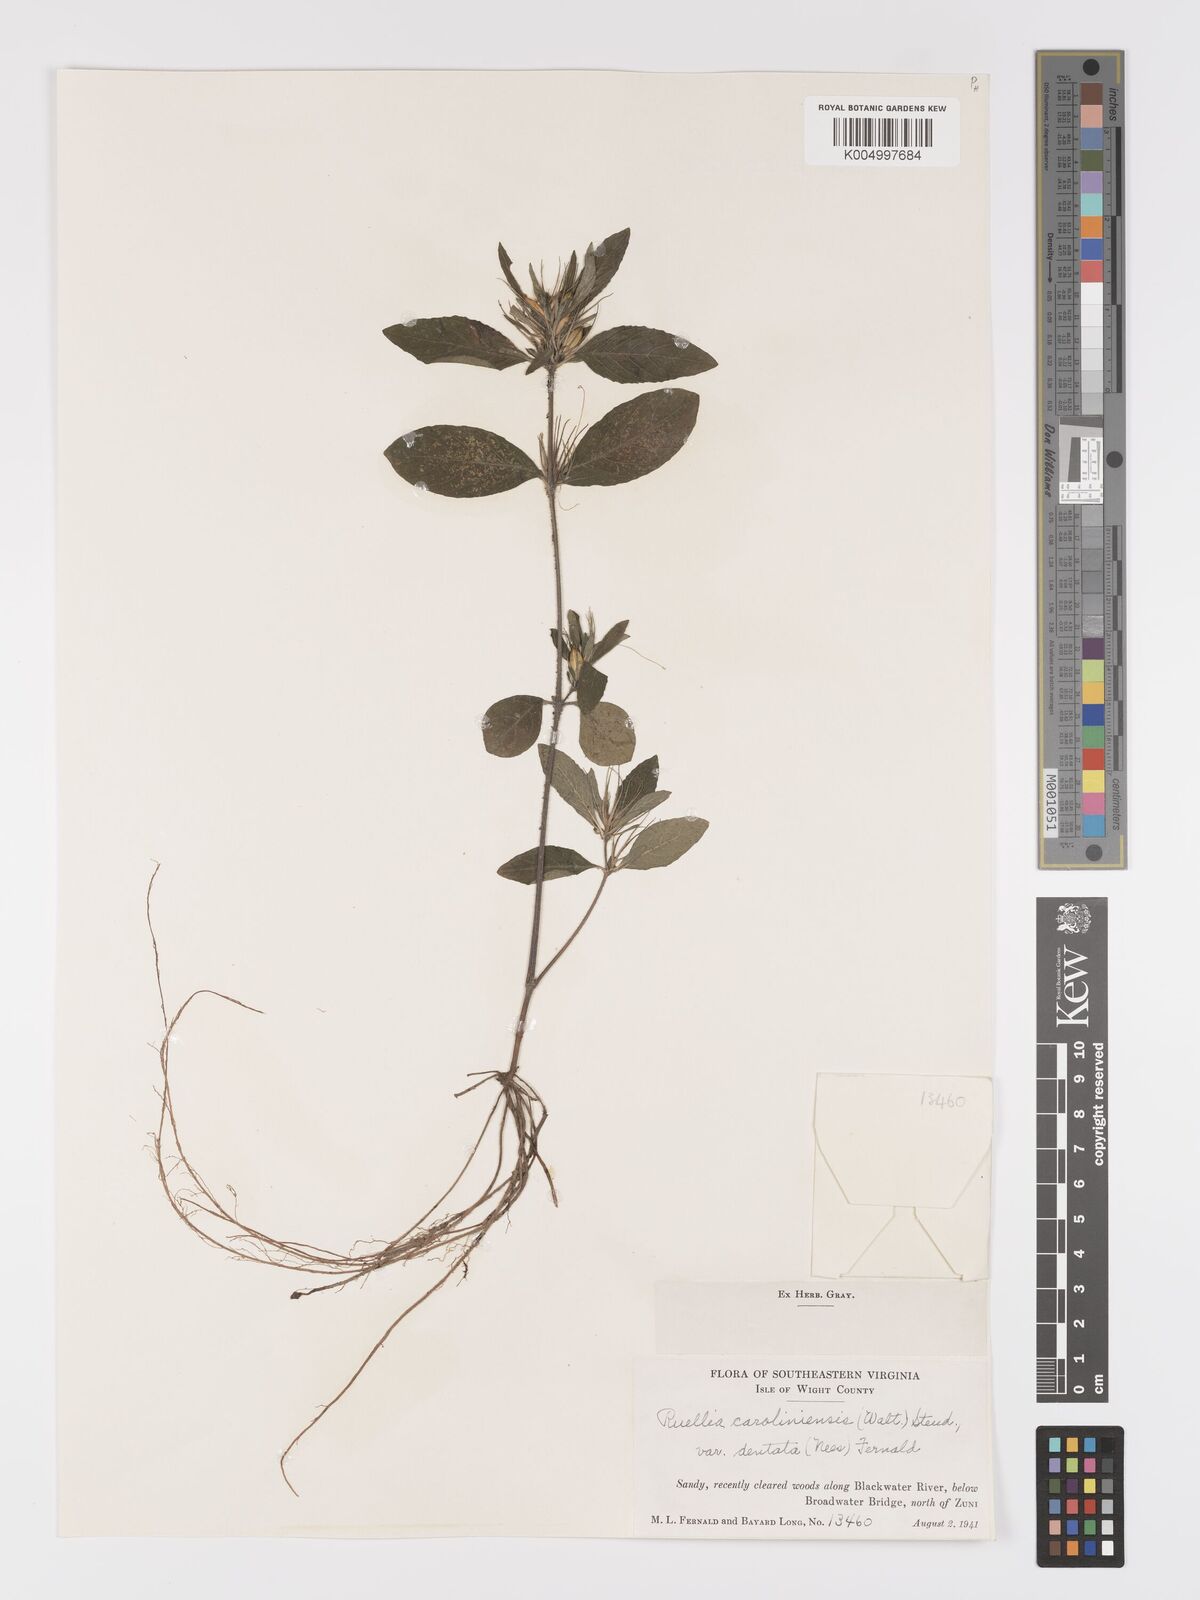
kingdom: Plantae
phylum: Tracheophyta
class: Magnoliopsida
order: Lamiales
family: Acanthaceae
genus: Ruellia
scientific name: Ruellia caroliniensis
